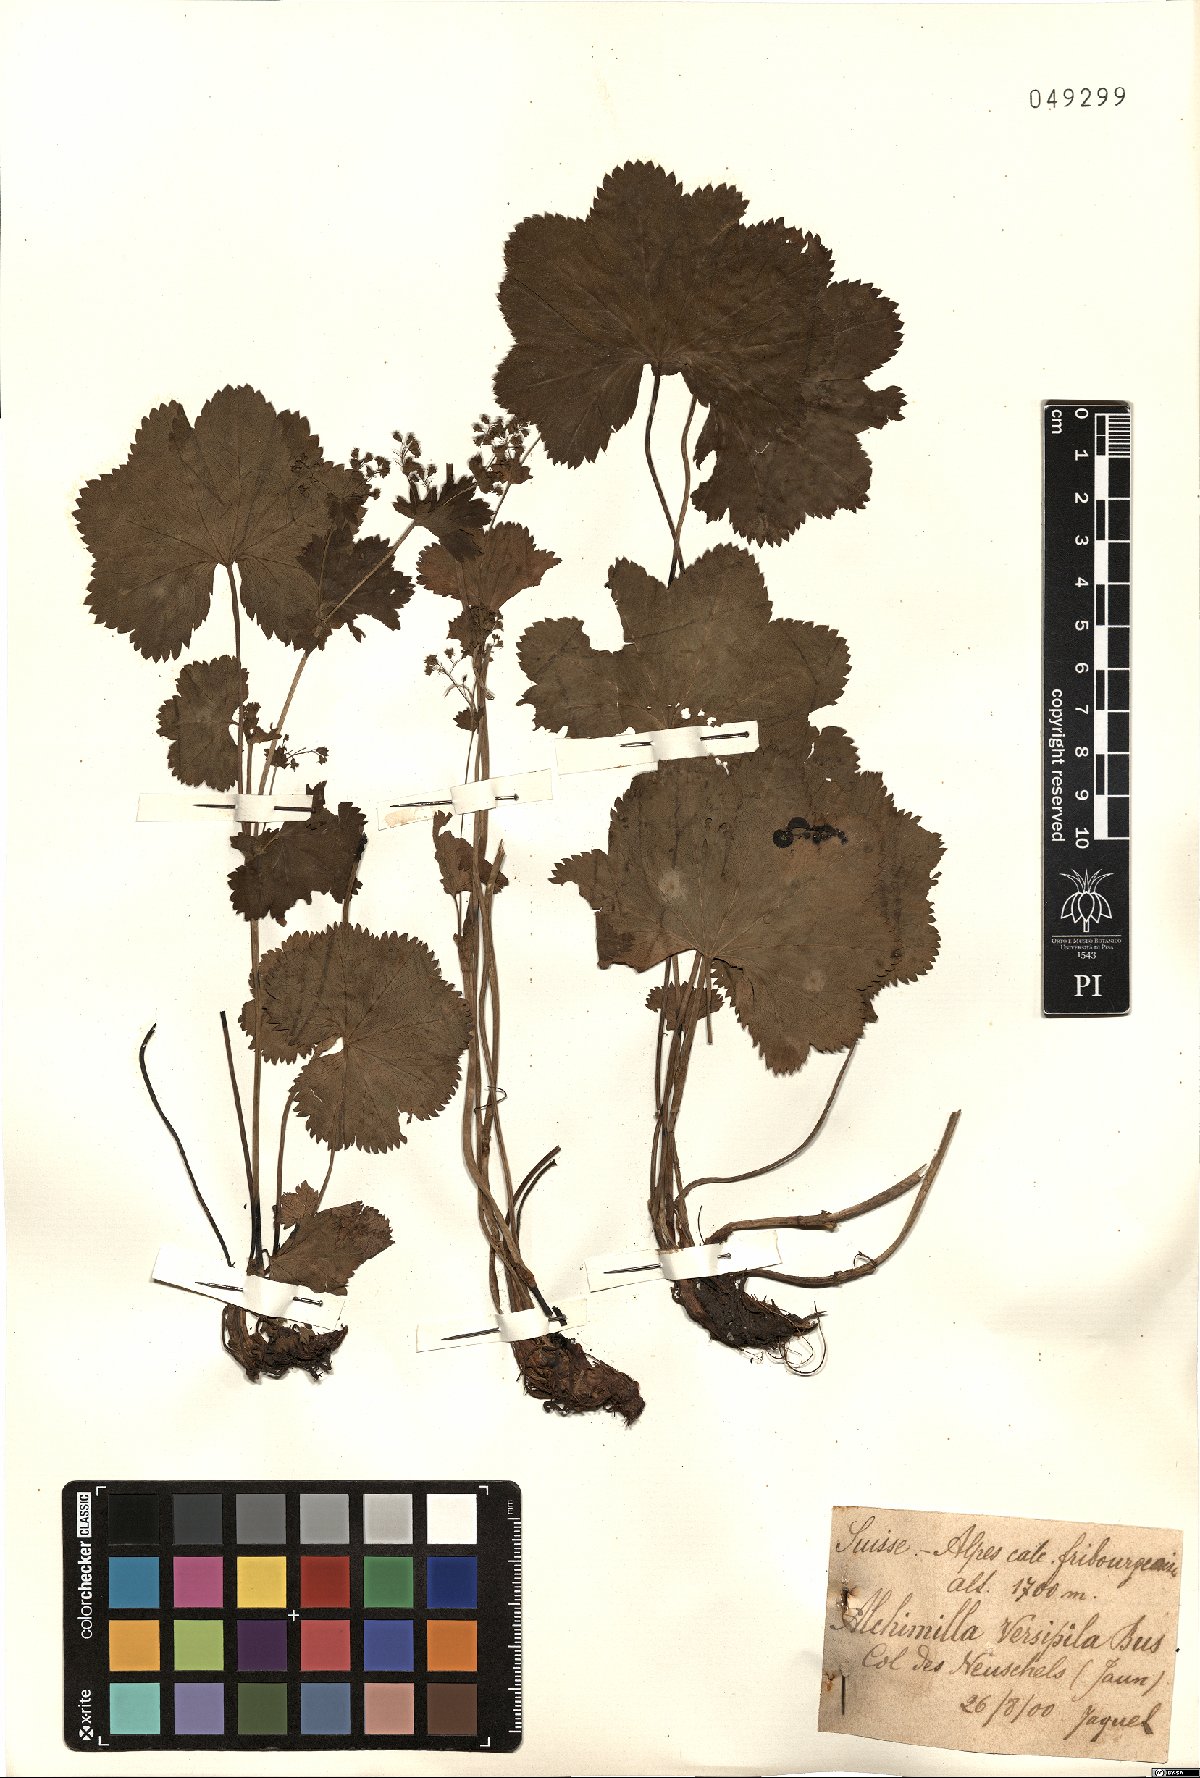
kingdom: Plantae
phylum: Tracheophyta
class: Magnoliopsida
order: Rosales
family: Rosaceae
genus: Alchemilla
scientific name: Alchemilla versipila
